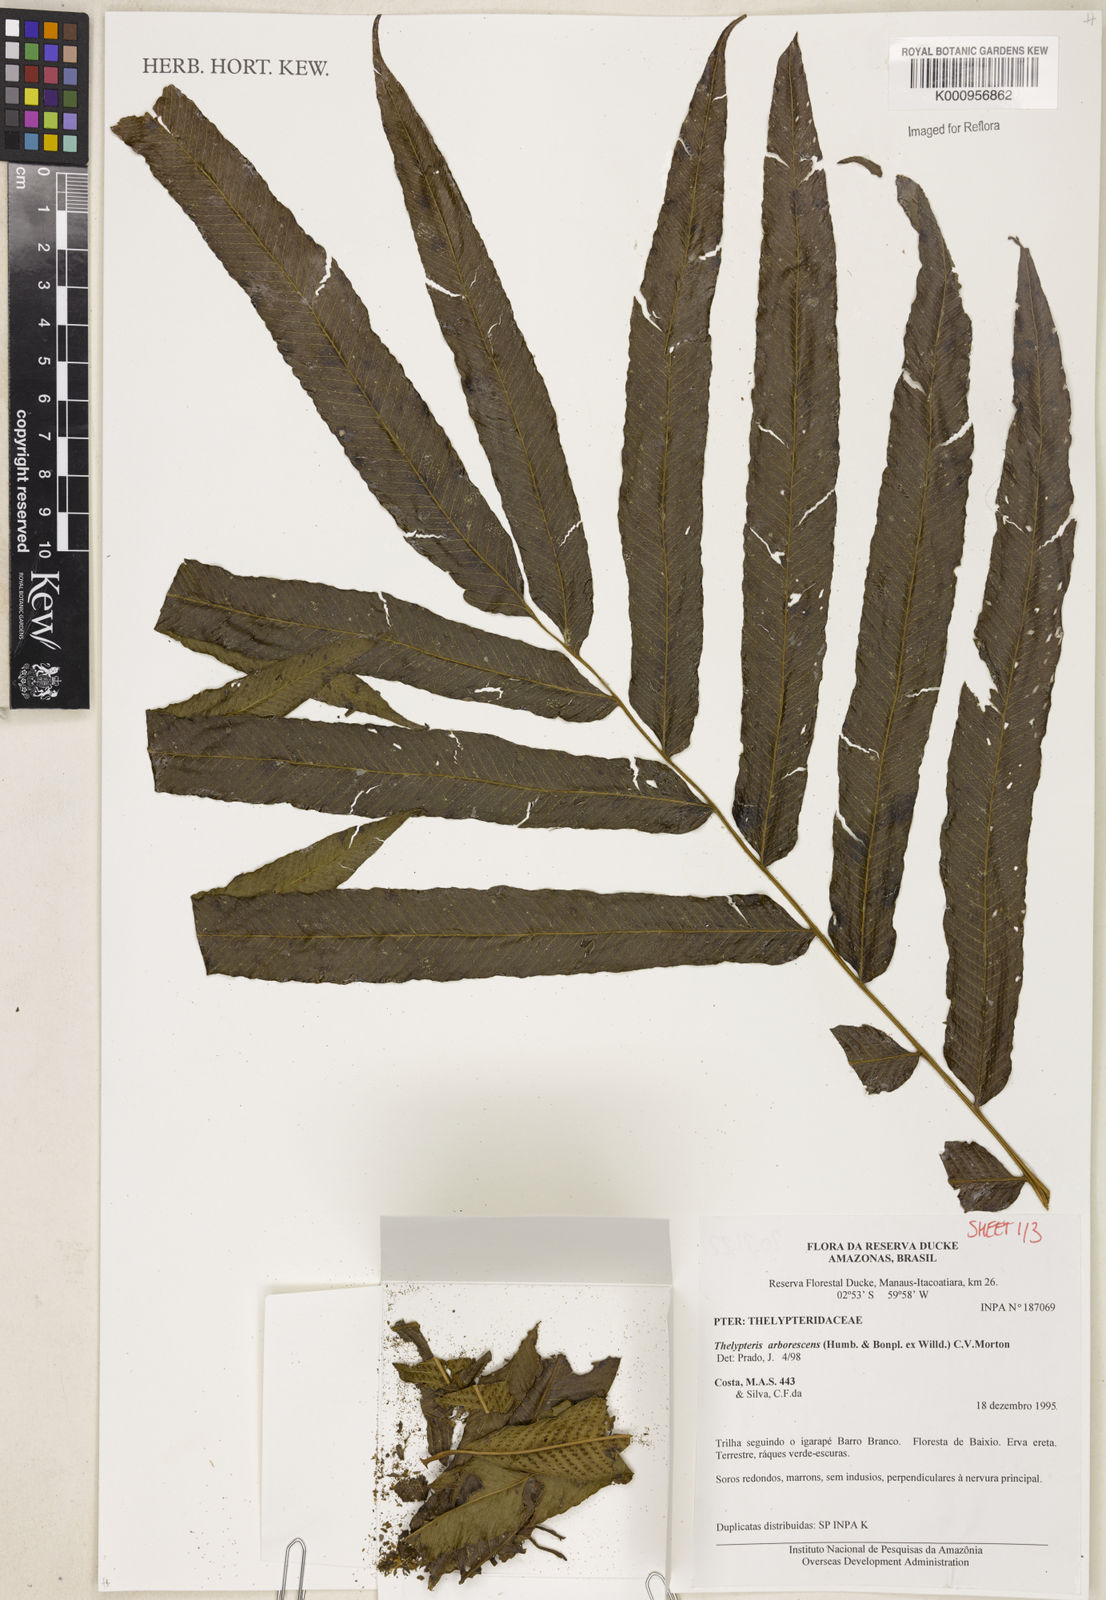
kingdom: Plantae
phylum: Tracheophyta
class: Polypodiopsida
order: Polypodiales
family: Thelypteridaceae
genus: Meniscium
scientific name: Meniscium arborescens
